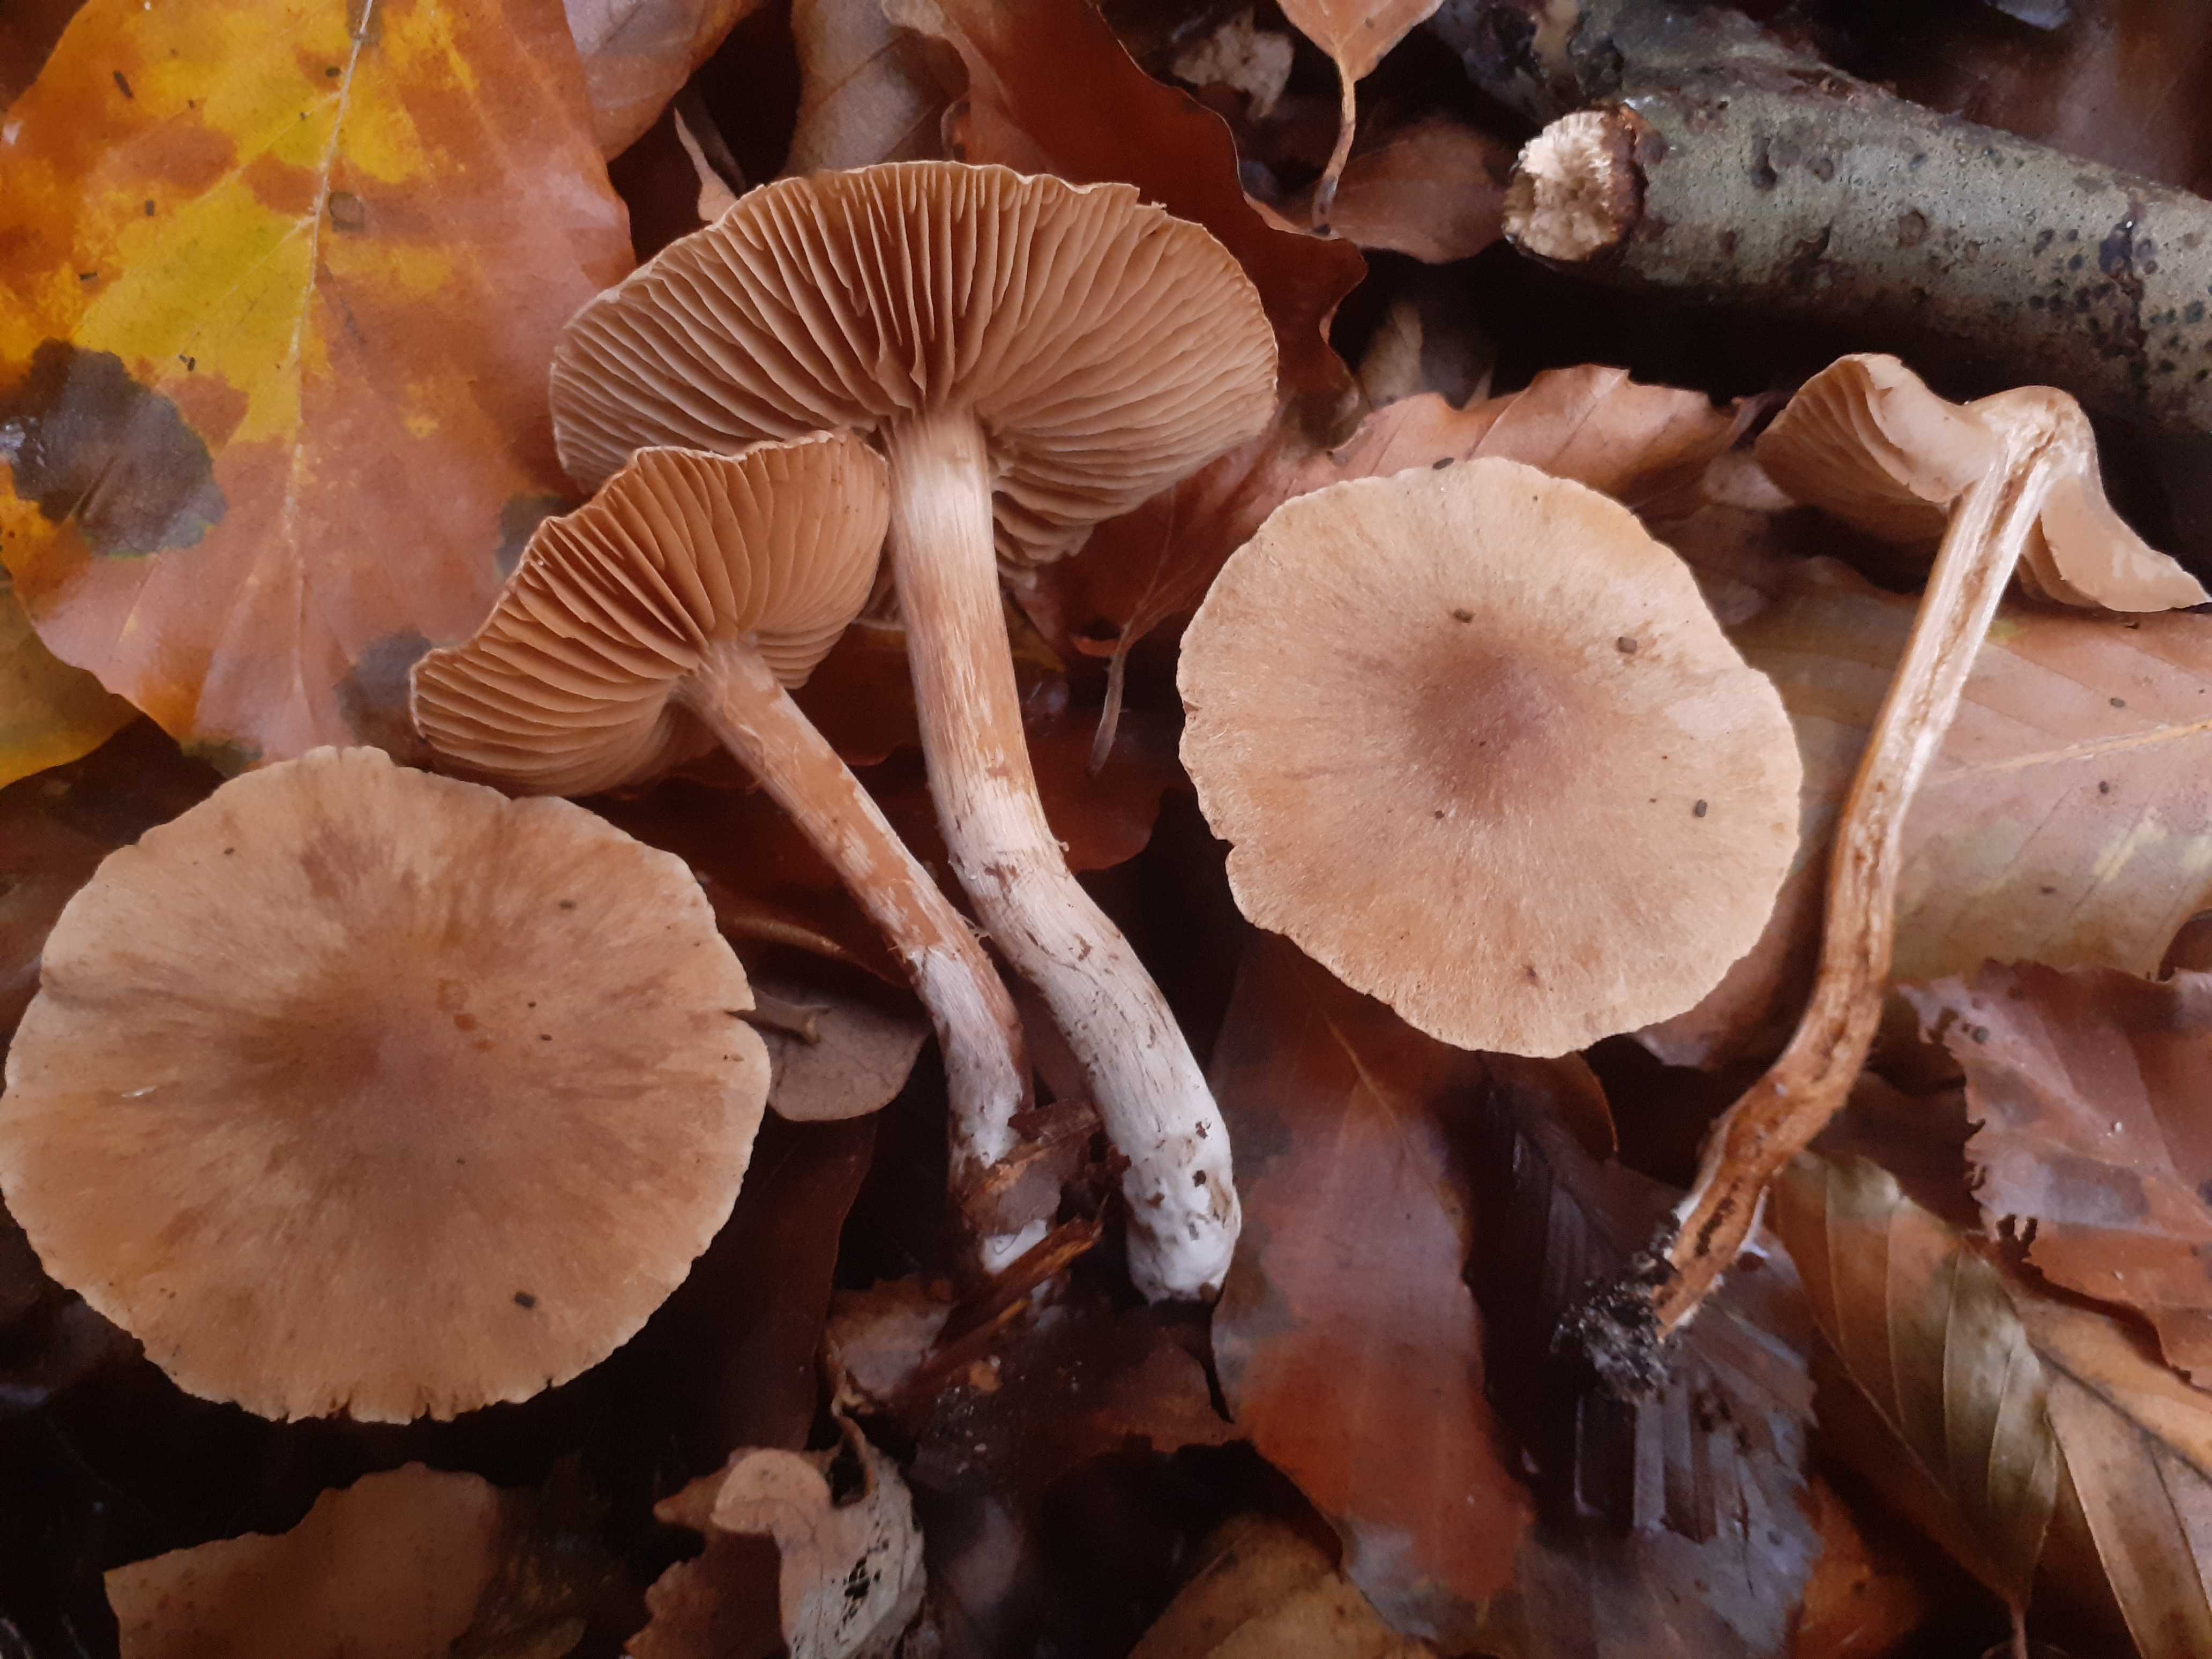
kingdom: Fungi
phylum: Basidiomycota
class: Agaricomycetes
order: Agaricales
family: Cortinariaceae
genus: Cortinarius
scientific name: Cortinarius epipurrus
